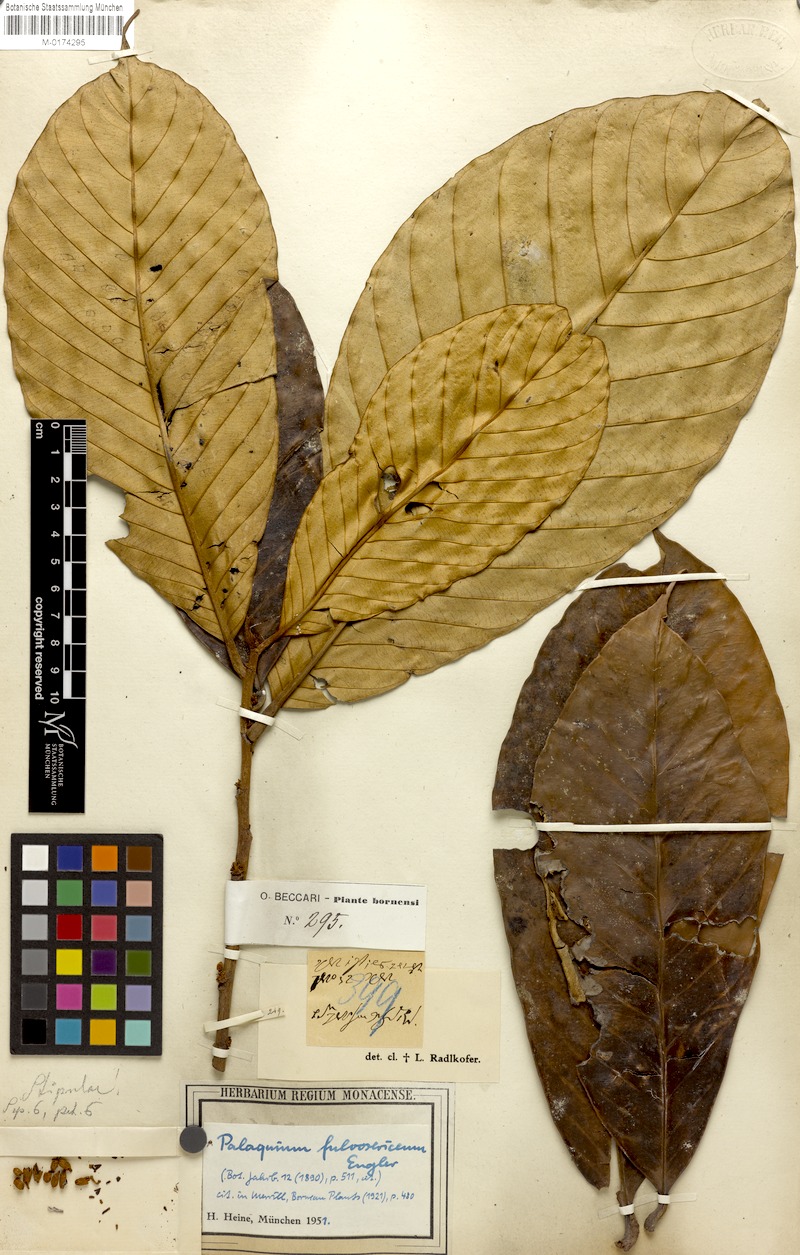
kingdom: Plantae
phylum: Tracheophyta
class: Magnoliopsida
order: Ericales
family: Sapotaceae
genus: Palaquium
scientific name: Palaquium gutta
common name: Gutta-percha-tree
